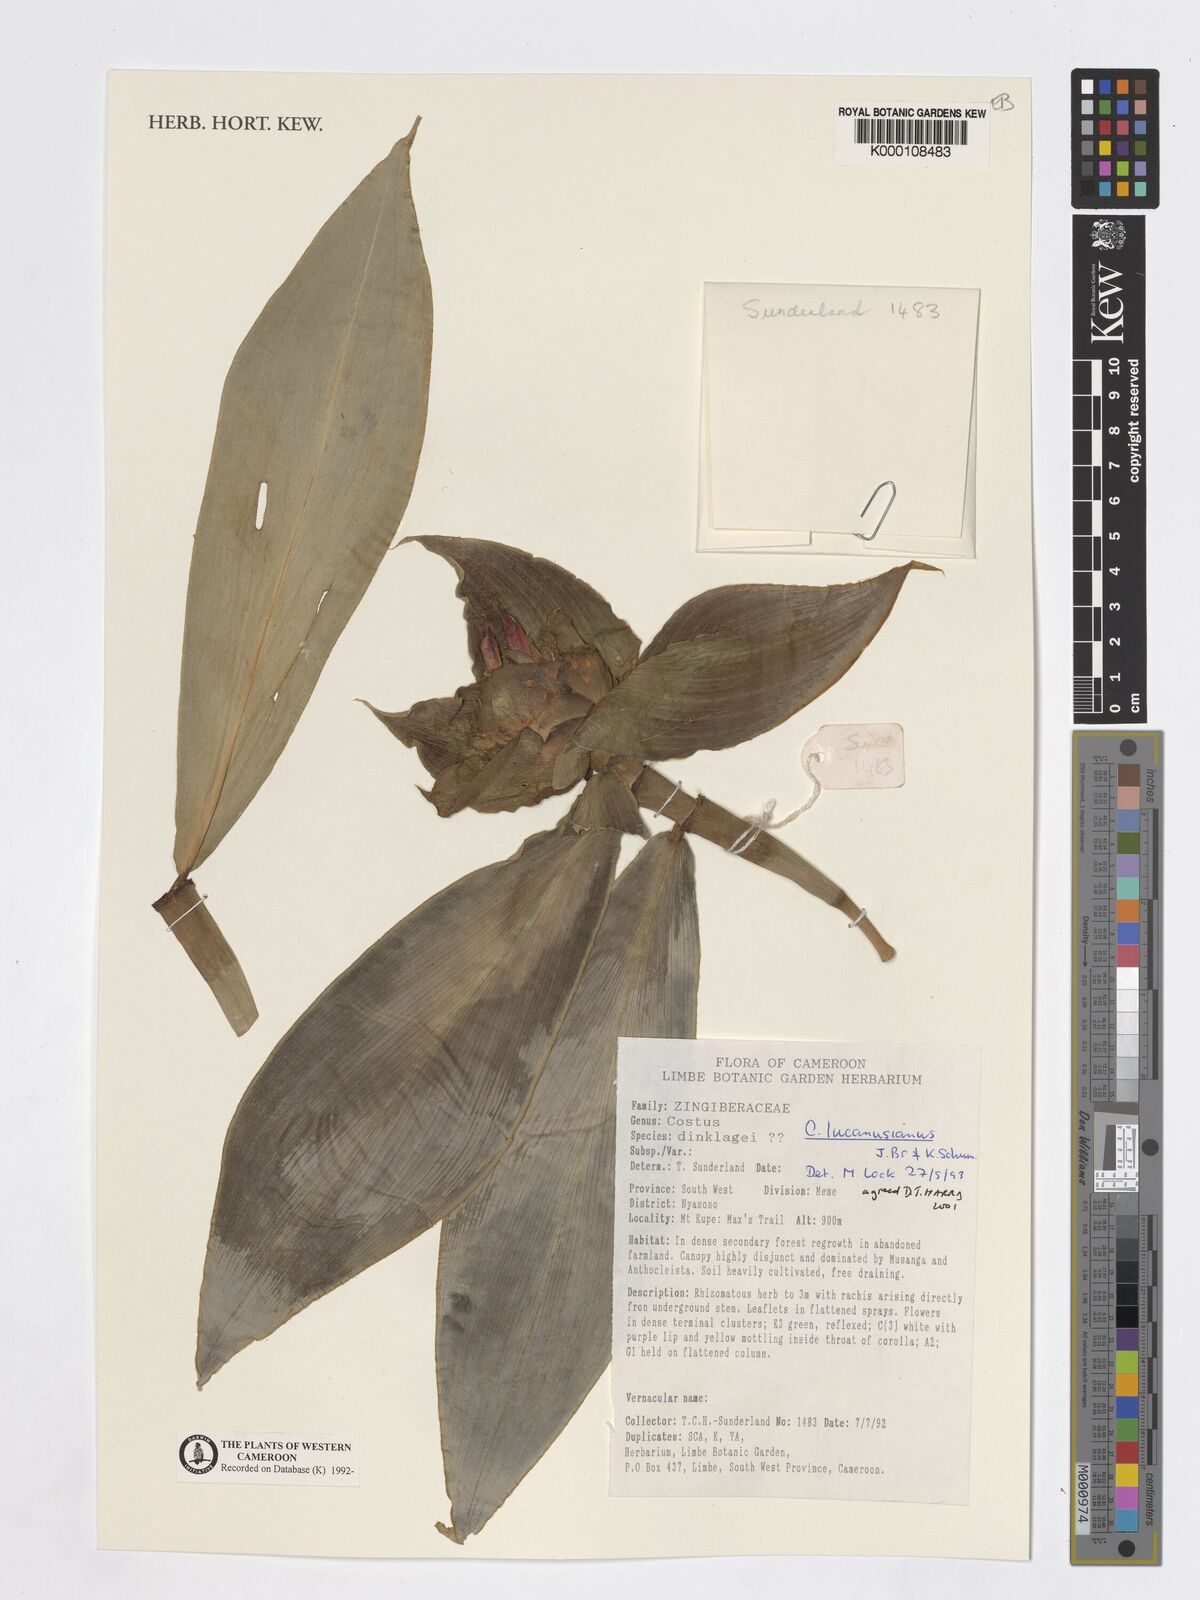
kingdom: Plantae
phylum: Tracheophyta
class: Liliopsida
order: Zingiberales
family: Costaceae
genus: Costus
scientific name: Costus lucanusianus
